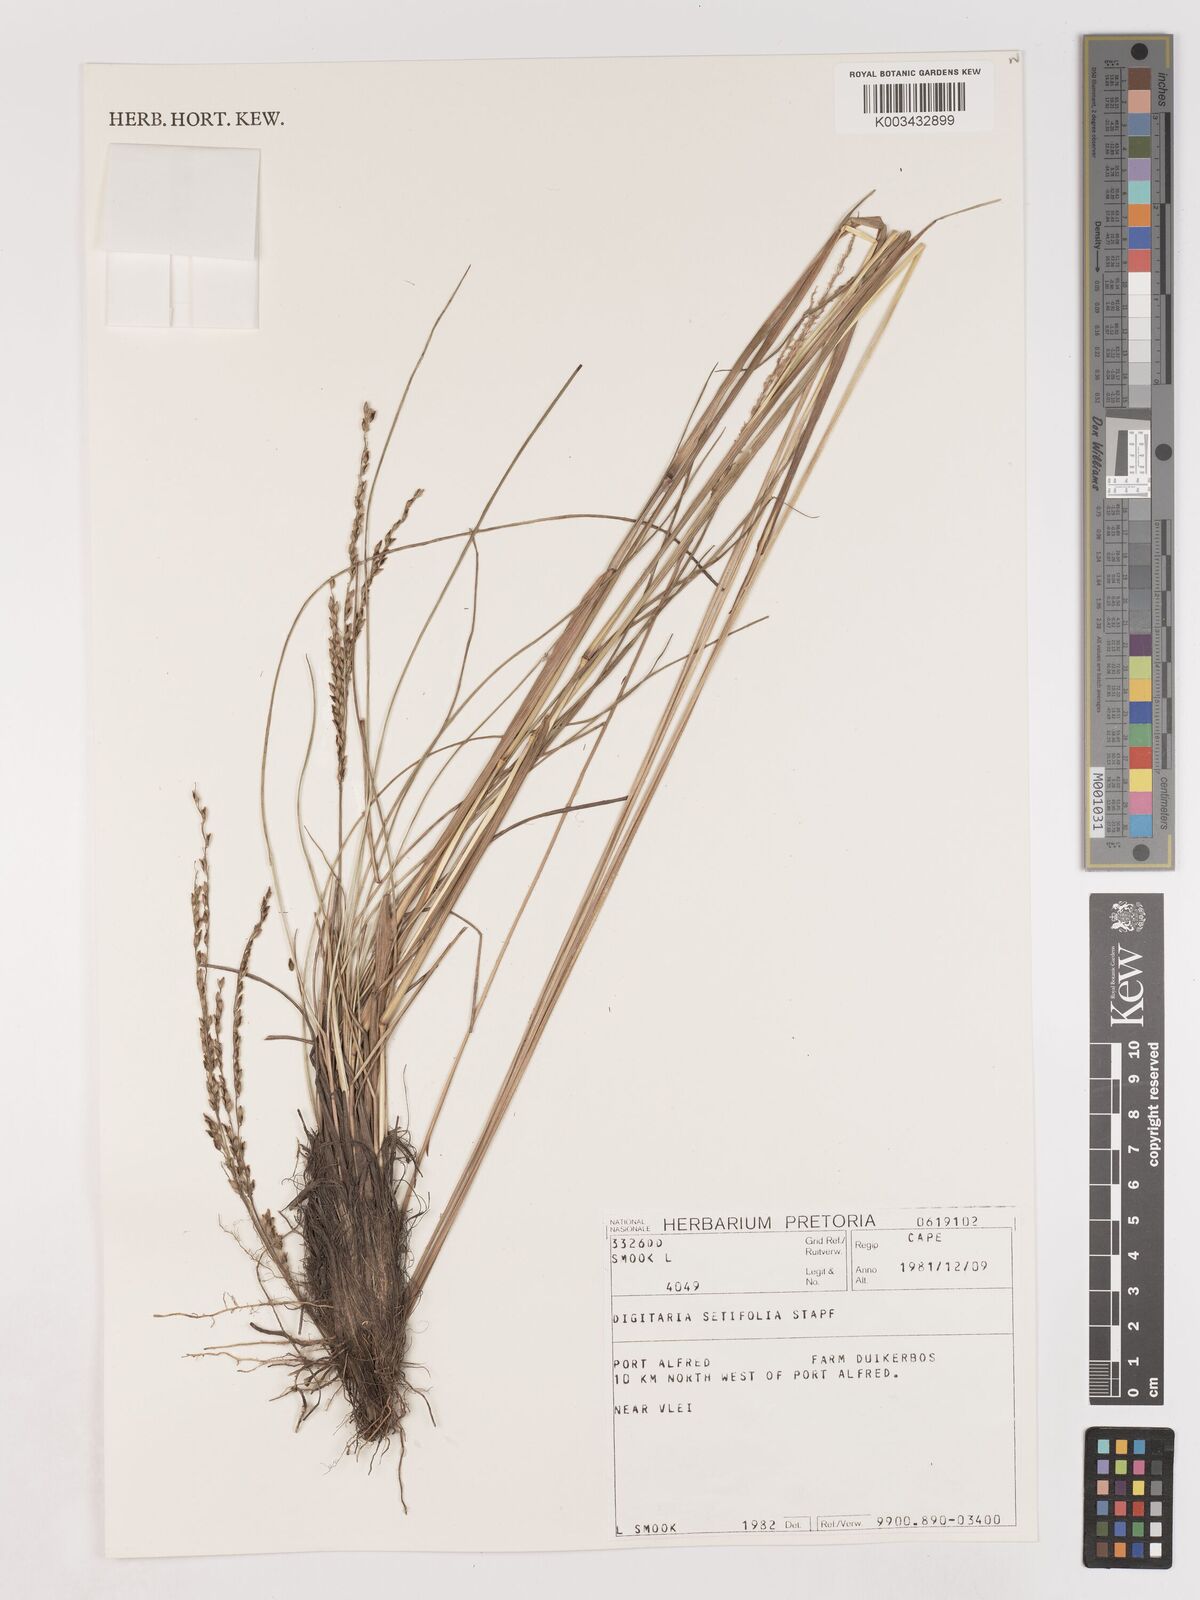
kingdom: Plantae
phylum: Tracheophyta
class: Liliopsida
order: Poales
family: Poaceae
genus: Digitaria
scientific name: Digitaria setifolia
